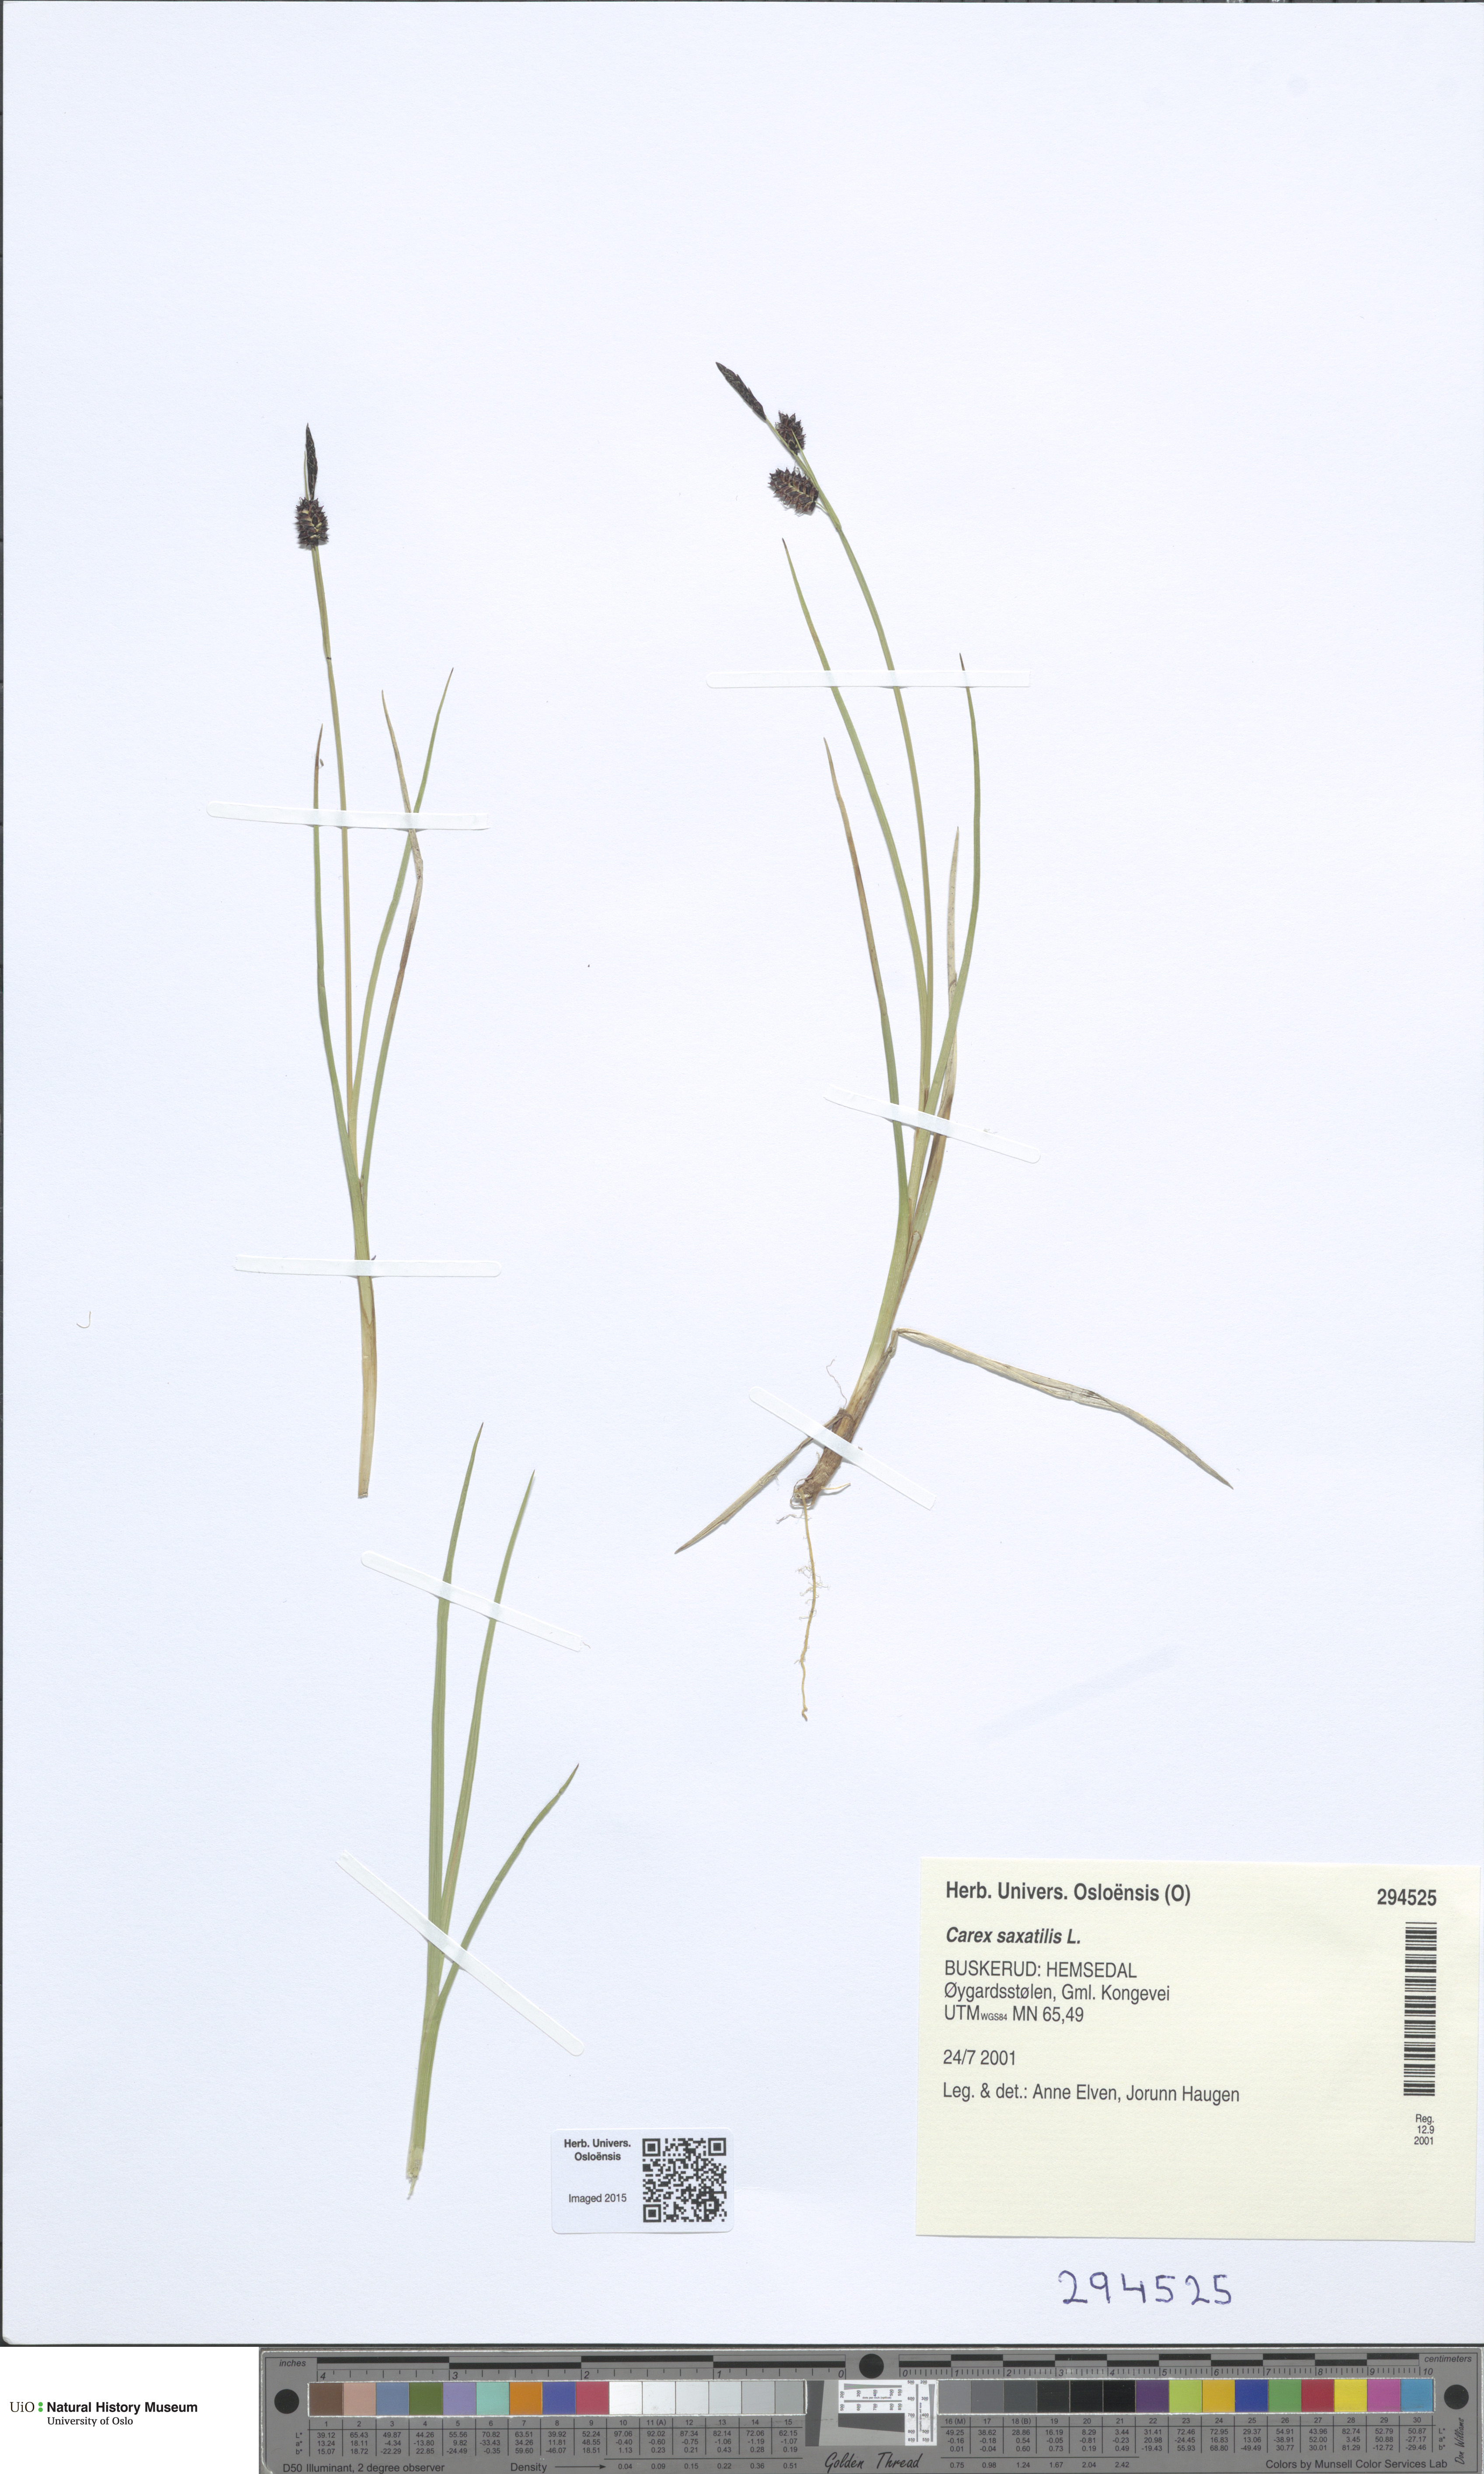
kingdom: Plantae
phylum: Tracheophyta
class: Liliopsida
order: Poales
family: Cyperaceae
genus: Carex
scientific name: Carex saxatilis
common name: Russet sedge
